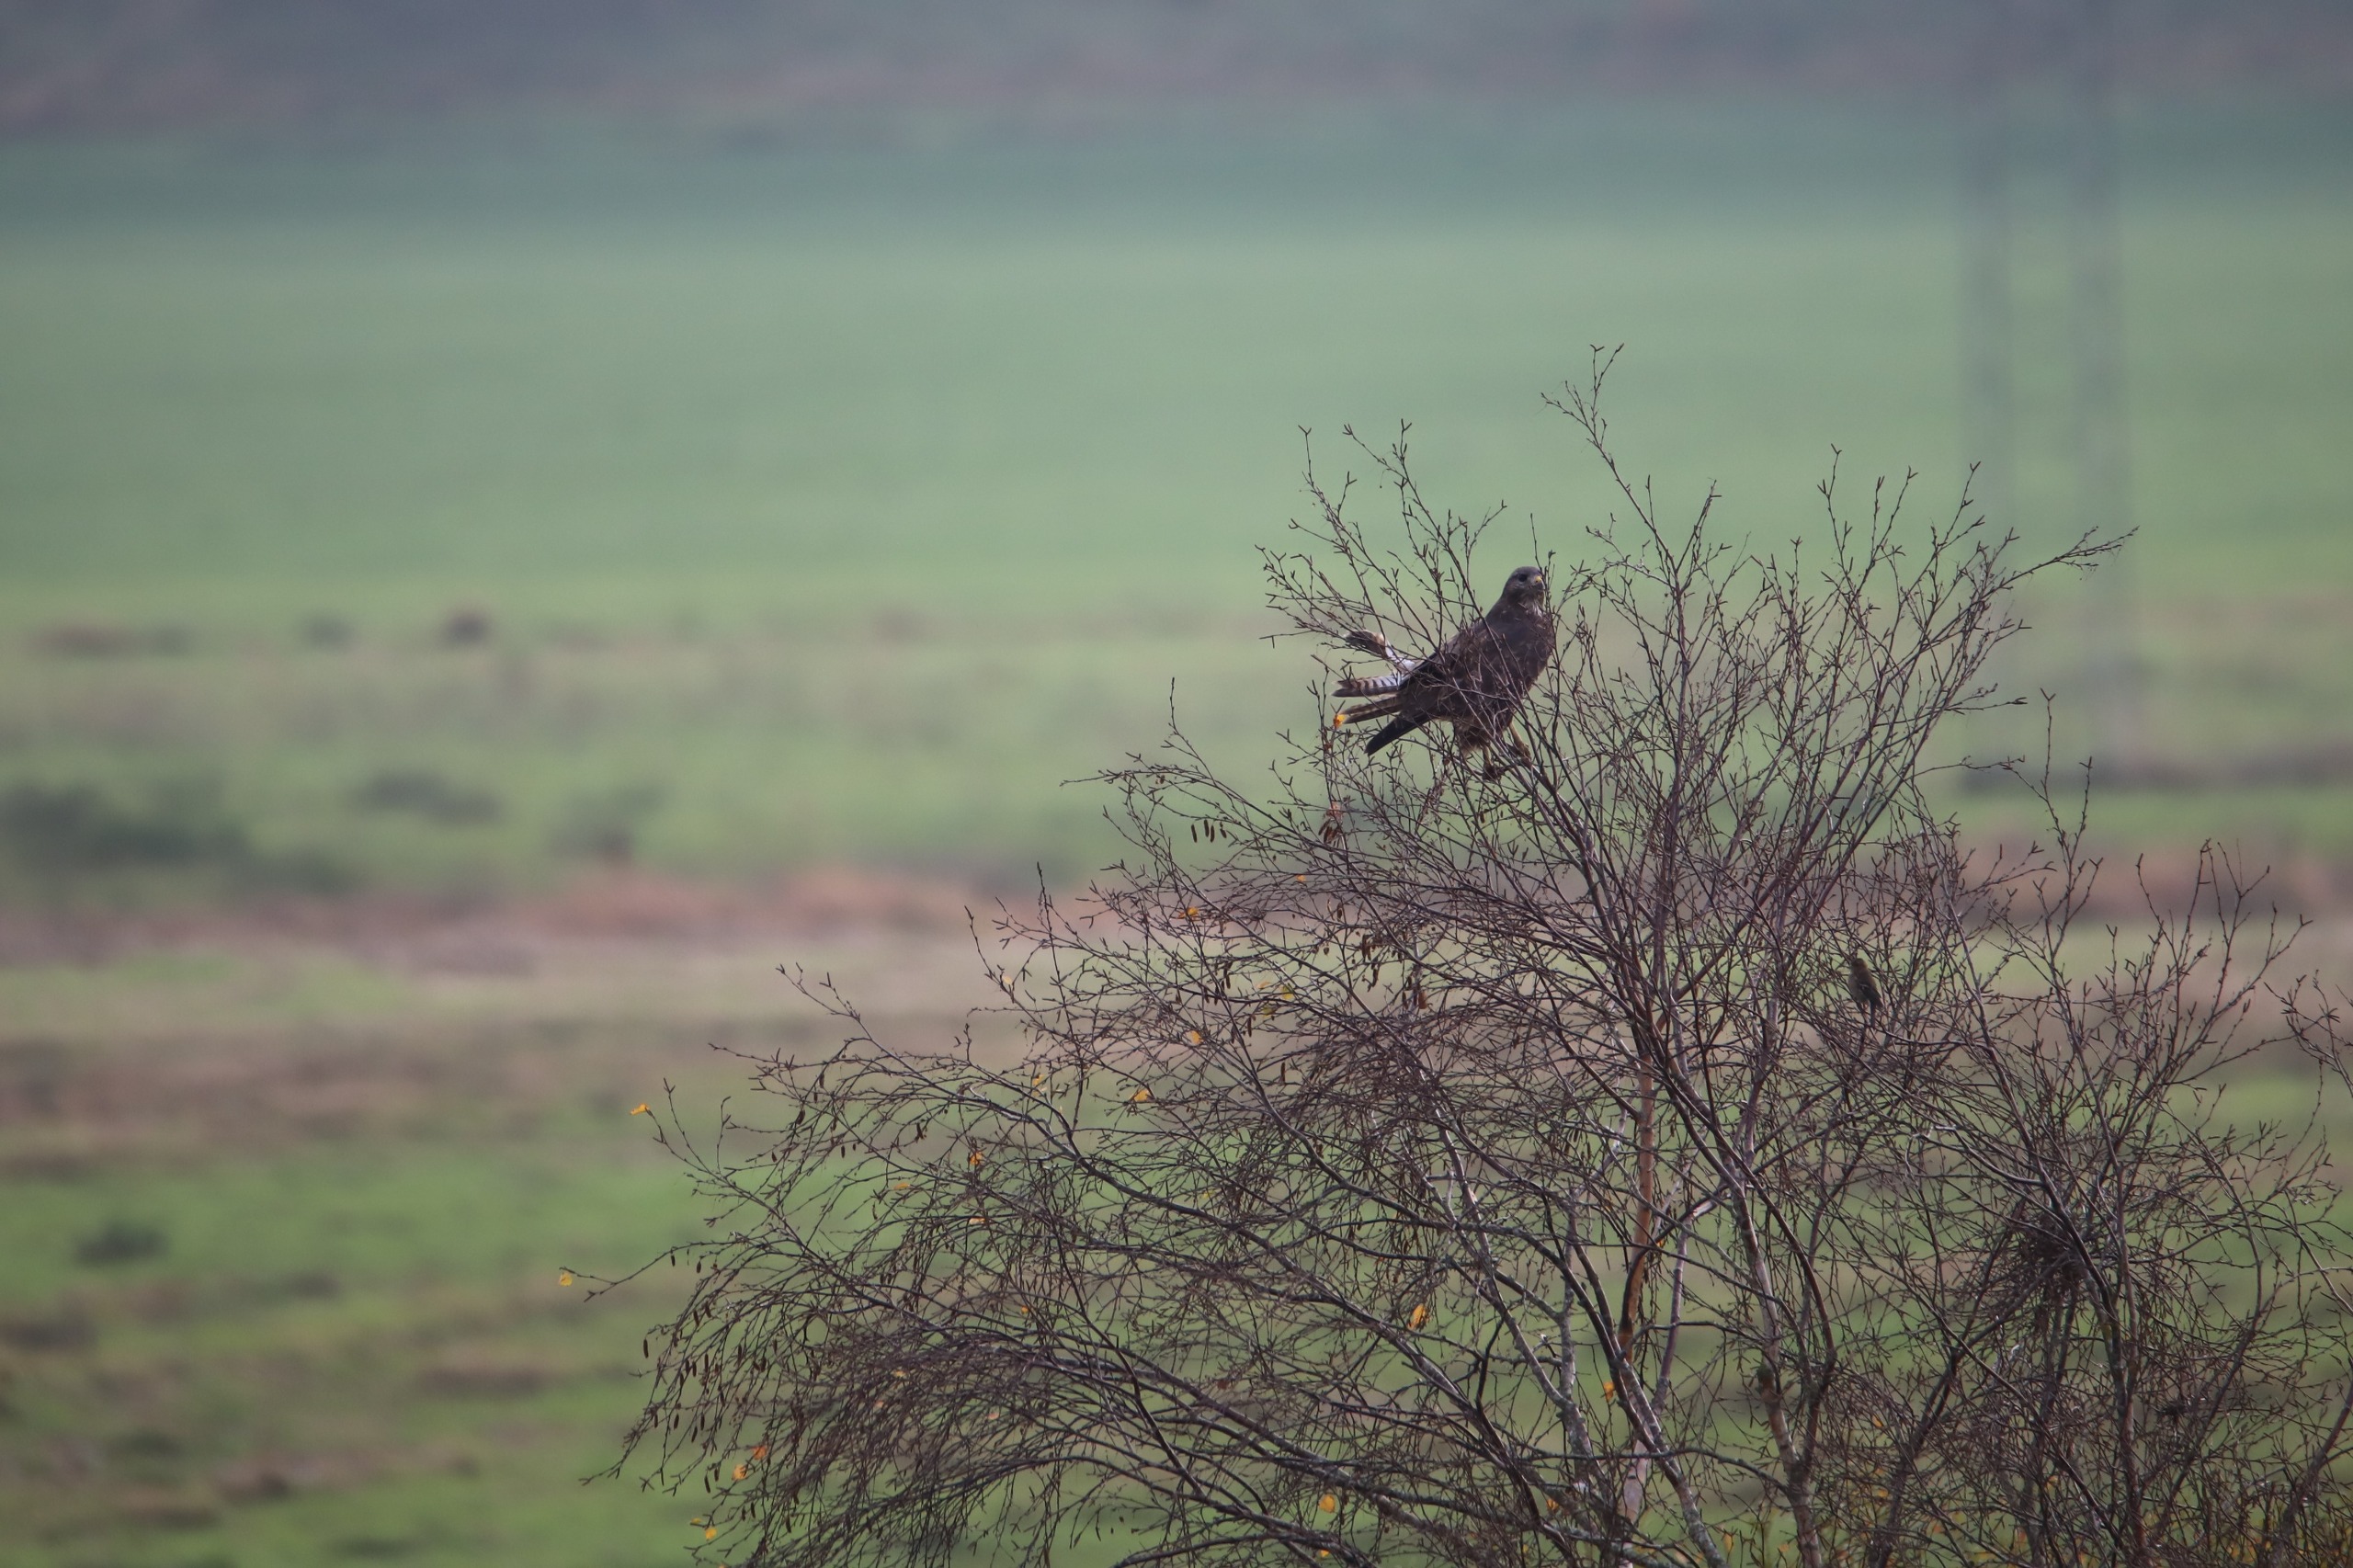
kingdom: Animalia
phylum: Chordata
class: Aves
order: Accipitriformes
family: Accipitridae
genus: Buteo
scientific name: Buteo buteo
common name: Musvåge
